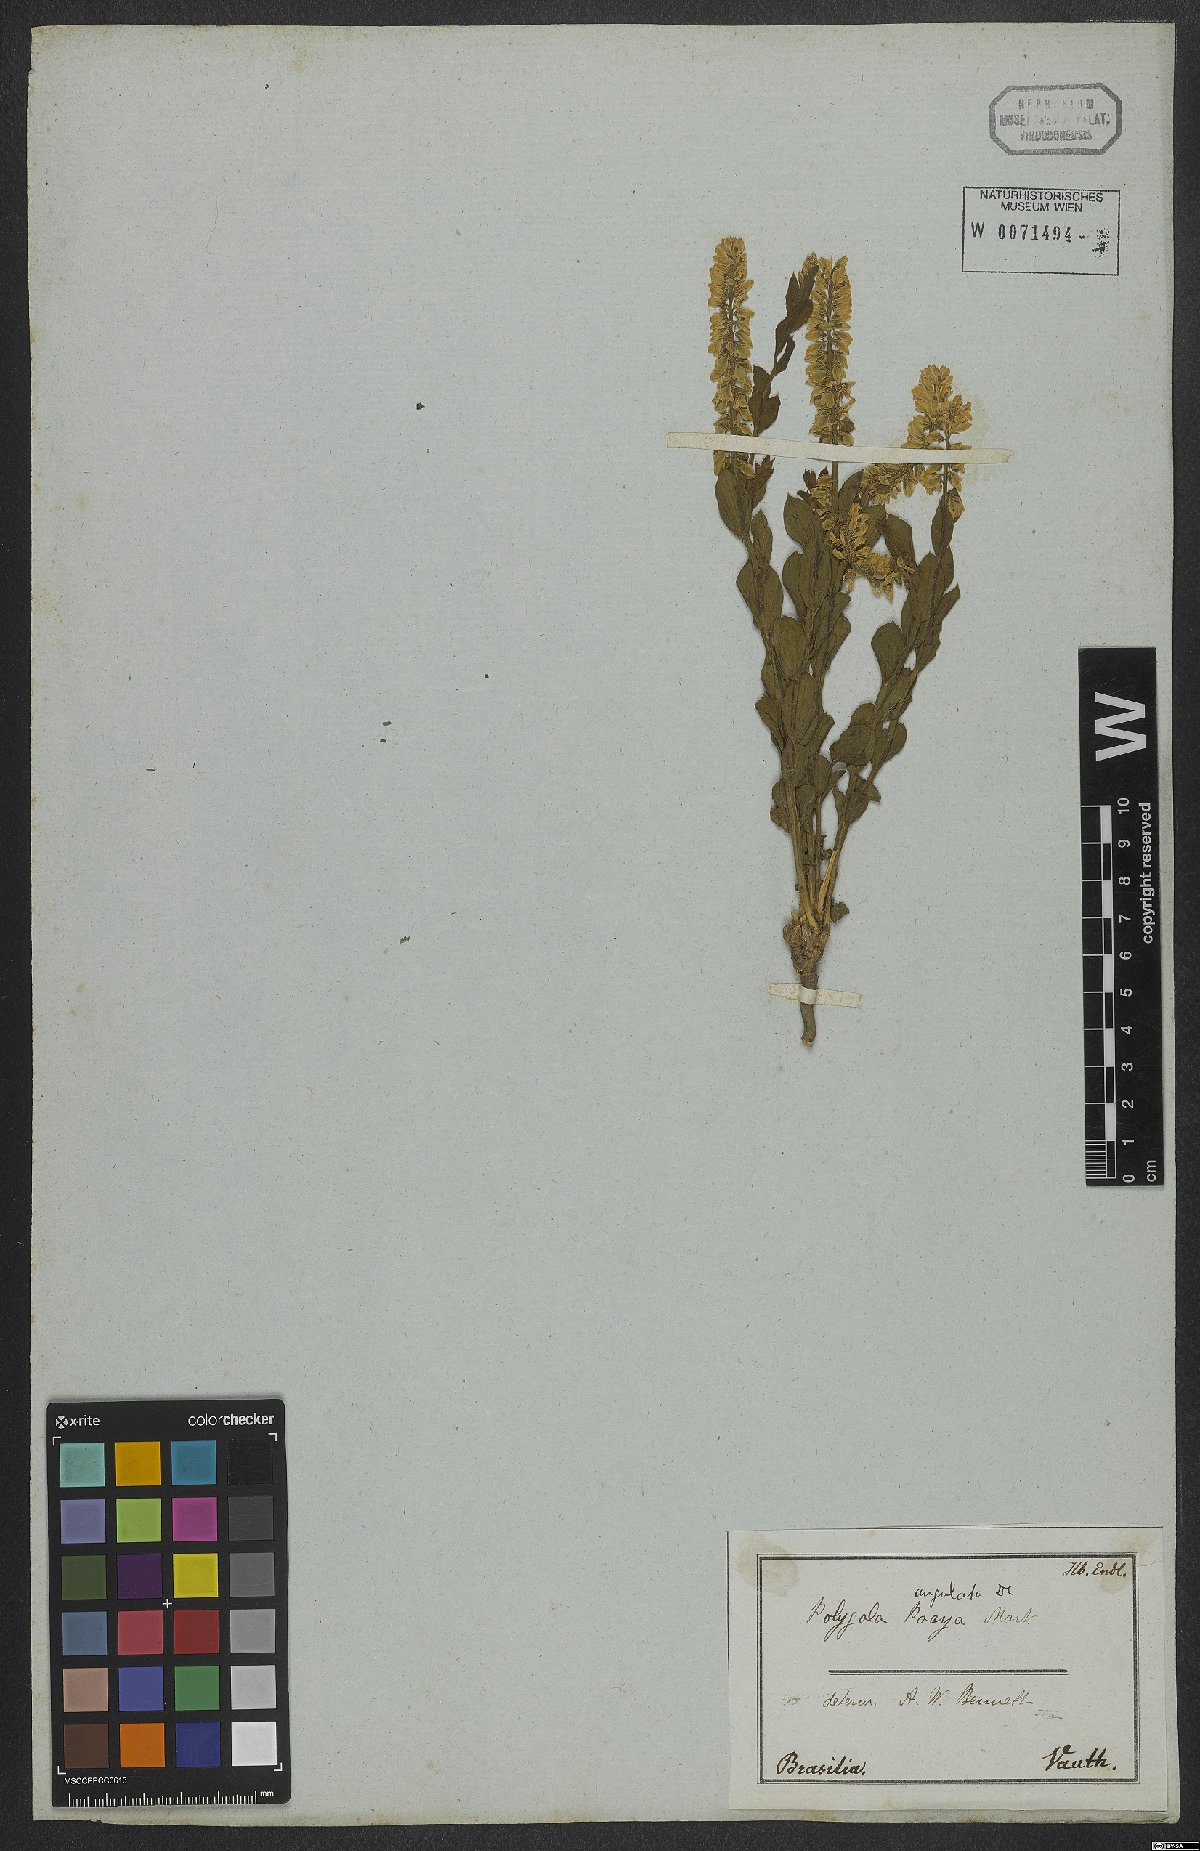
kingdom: Plantae
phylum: Tracheophyta
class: Magnoliopsida
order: Fabales
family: Polygalaceae
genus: Polygala
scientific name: Polygala poaya
